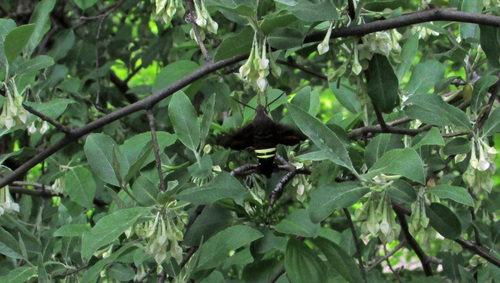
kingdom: Animalia
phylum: Arthropoda
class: Insecta
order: Lepidoptera
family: Sphingidae
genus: Amphion
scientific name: Amphion floridensis
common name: Nessus sphinx
